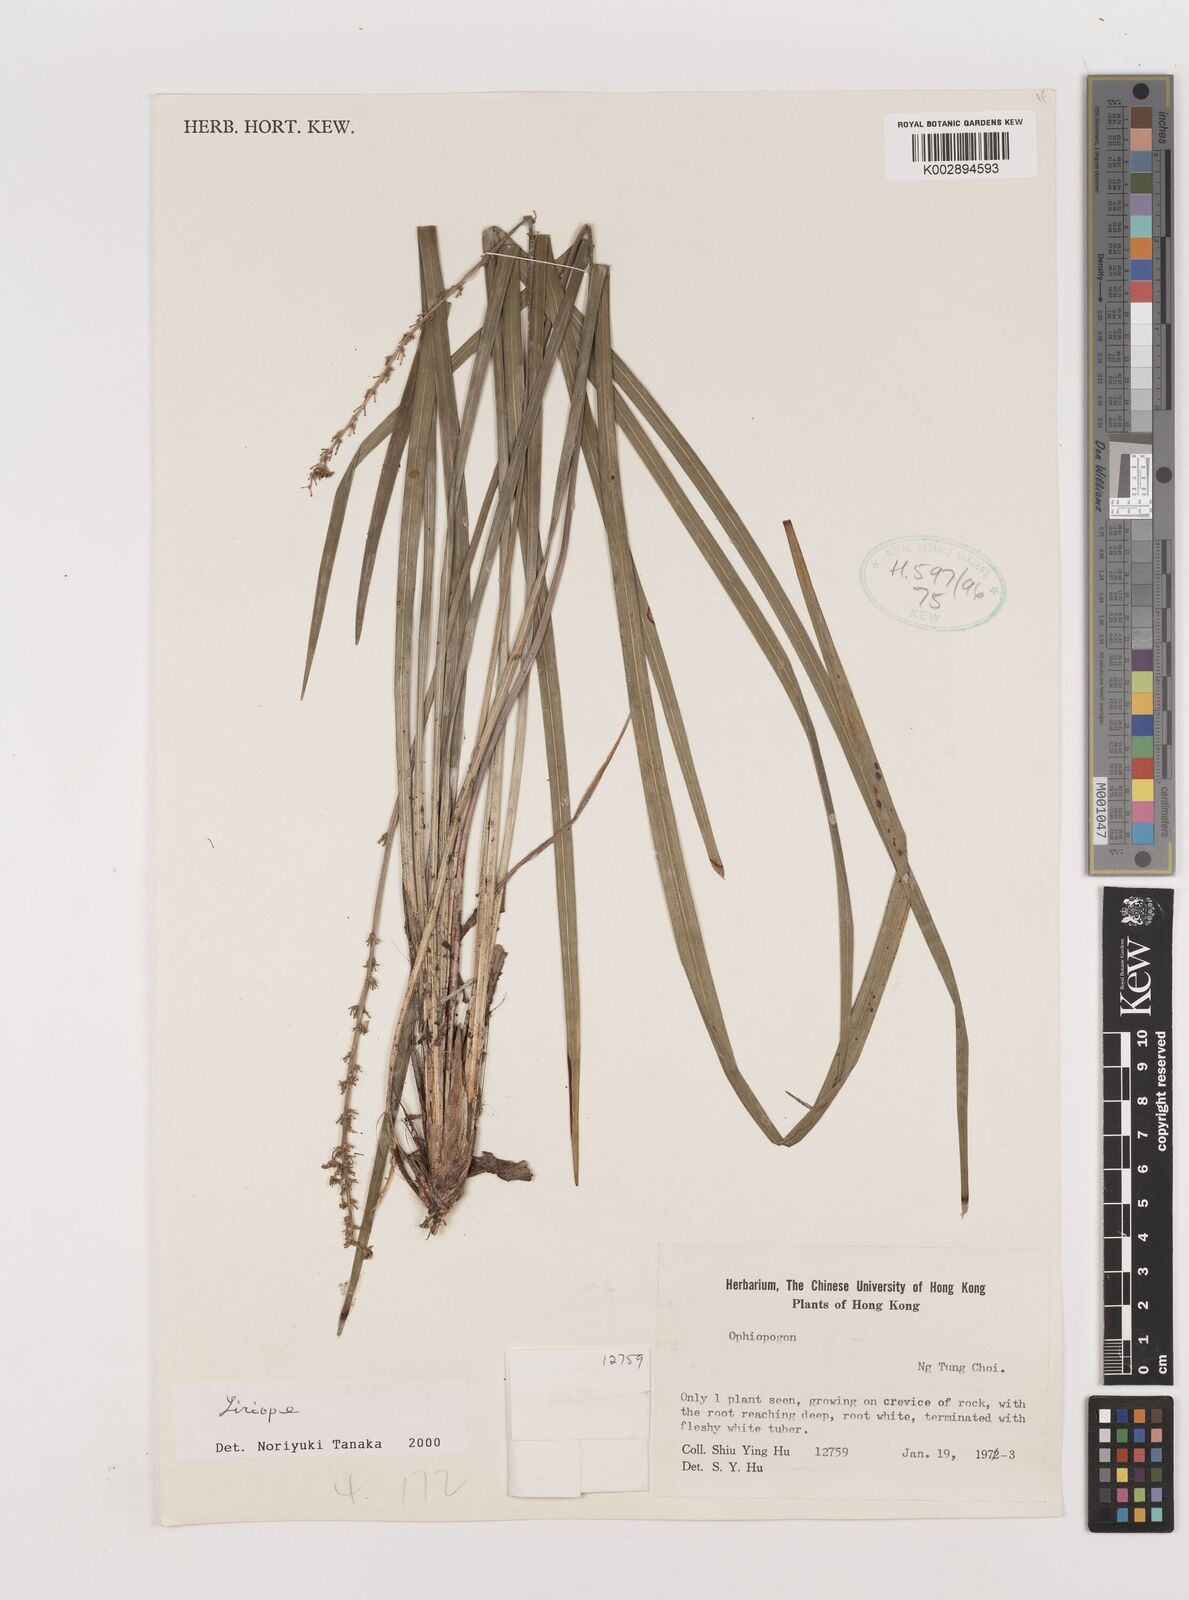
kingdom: Plantae
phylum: Tracheophyta
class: Liliopsida
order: Asparagales
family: Asparagaceae
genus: Liriope
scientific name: Liriope
